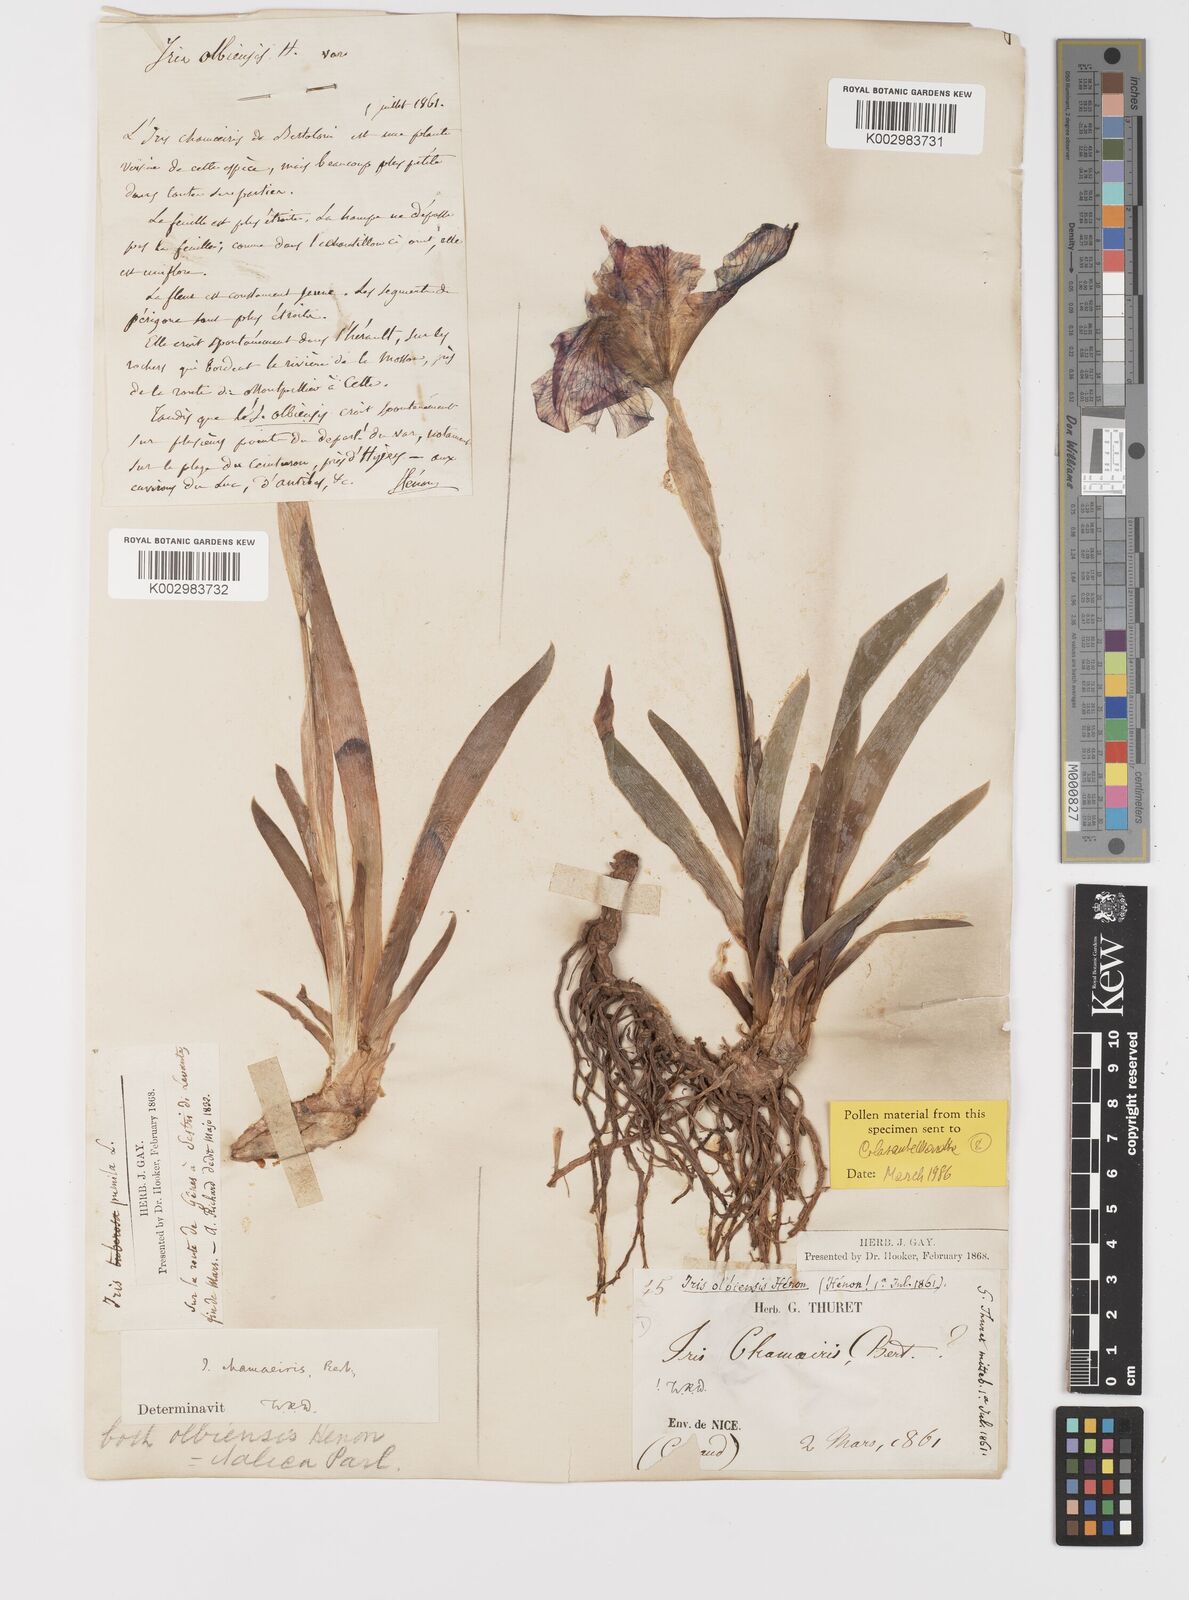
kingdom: Plantae
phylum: Tracheophyta
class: Liliopsida
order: Asparagales
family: Iridaceae
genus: Iris
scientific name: Iris lutescens
